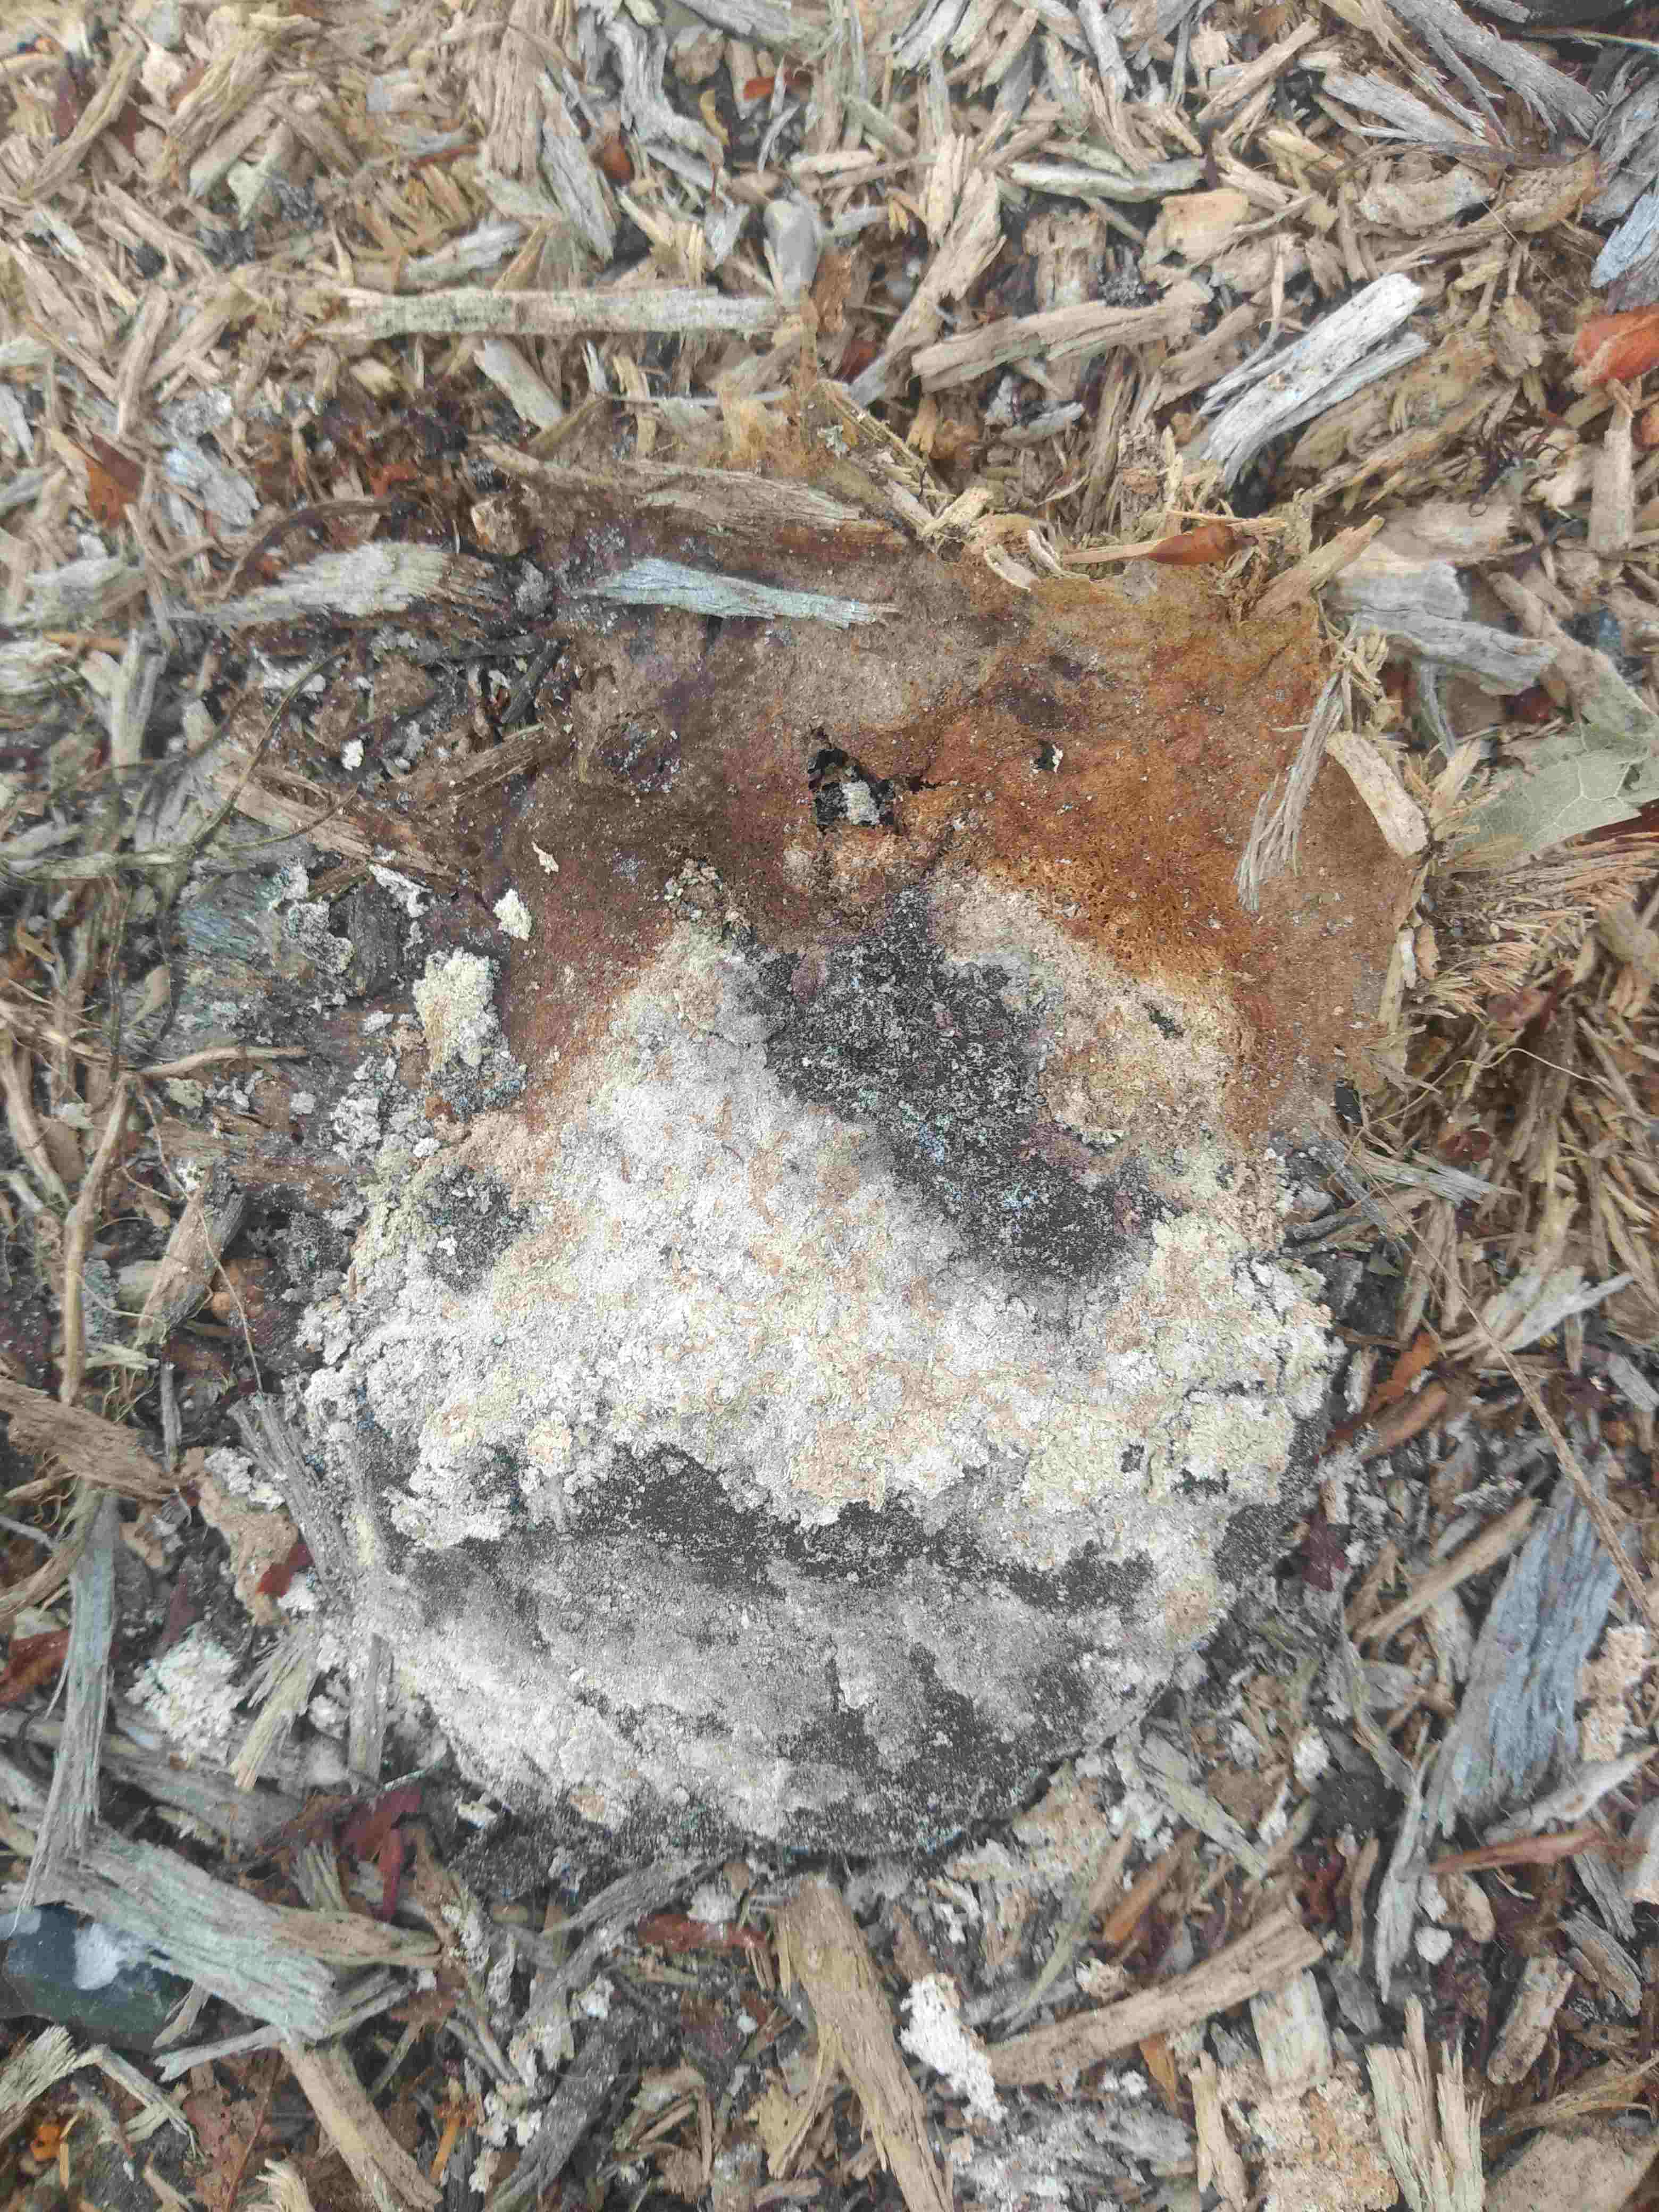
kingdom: Protozoa
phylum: Mycetozoa
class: Myxomycetes
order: Physarales
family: Physaraceae
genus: Fuligo
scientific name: Fuligo septica
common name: gul troldsmør
